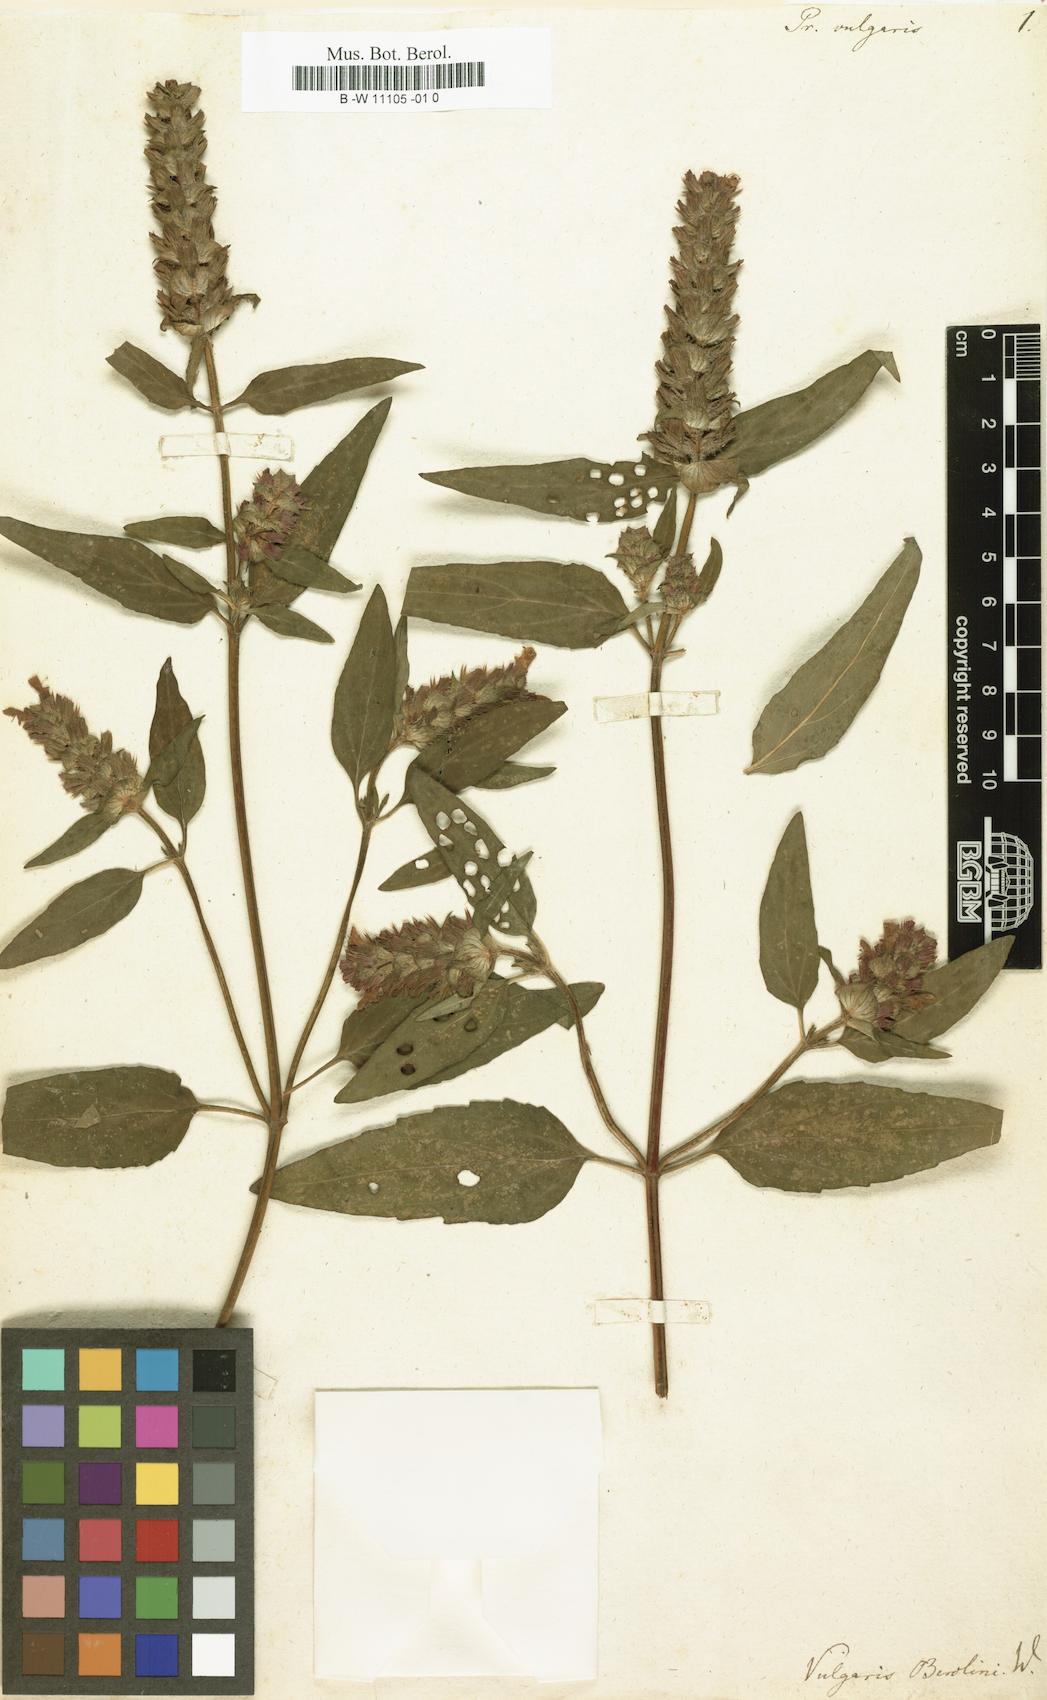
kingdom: Plantae
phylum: Tracheophyta
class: Magnoliopsida
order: Lamiales
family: Lamiaceae
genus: Prunella
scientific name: Prunella vulgaris
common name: Heal-all
